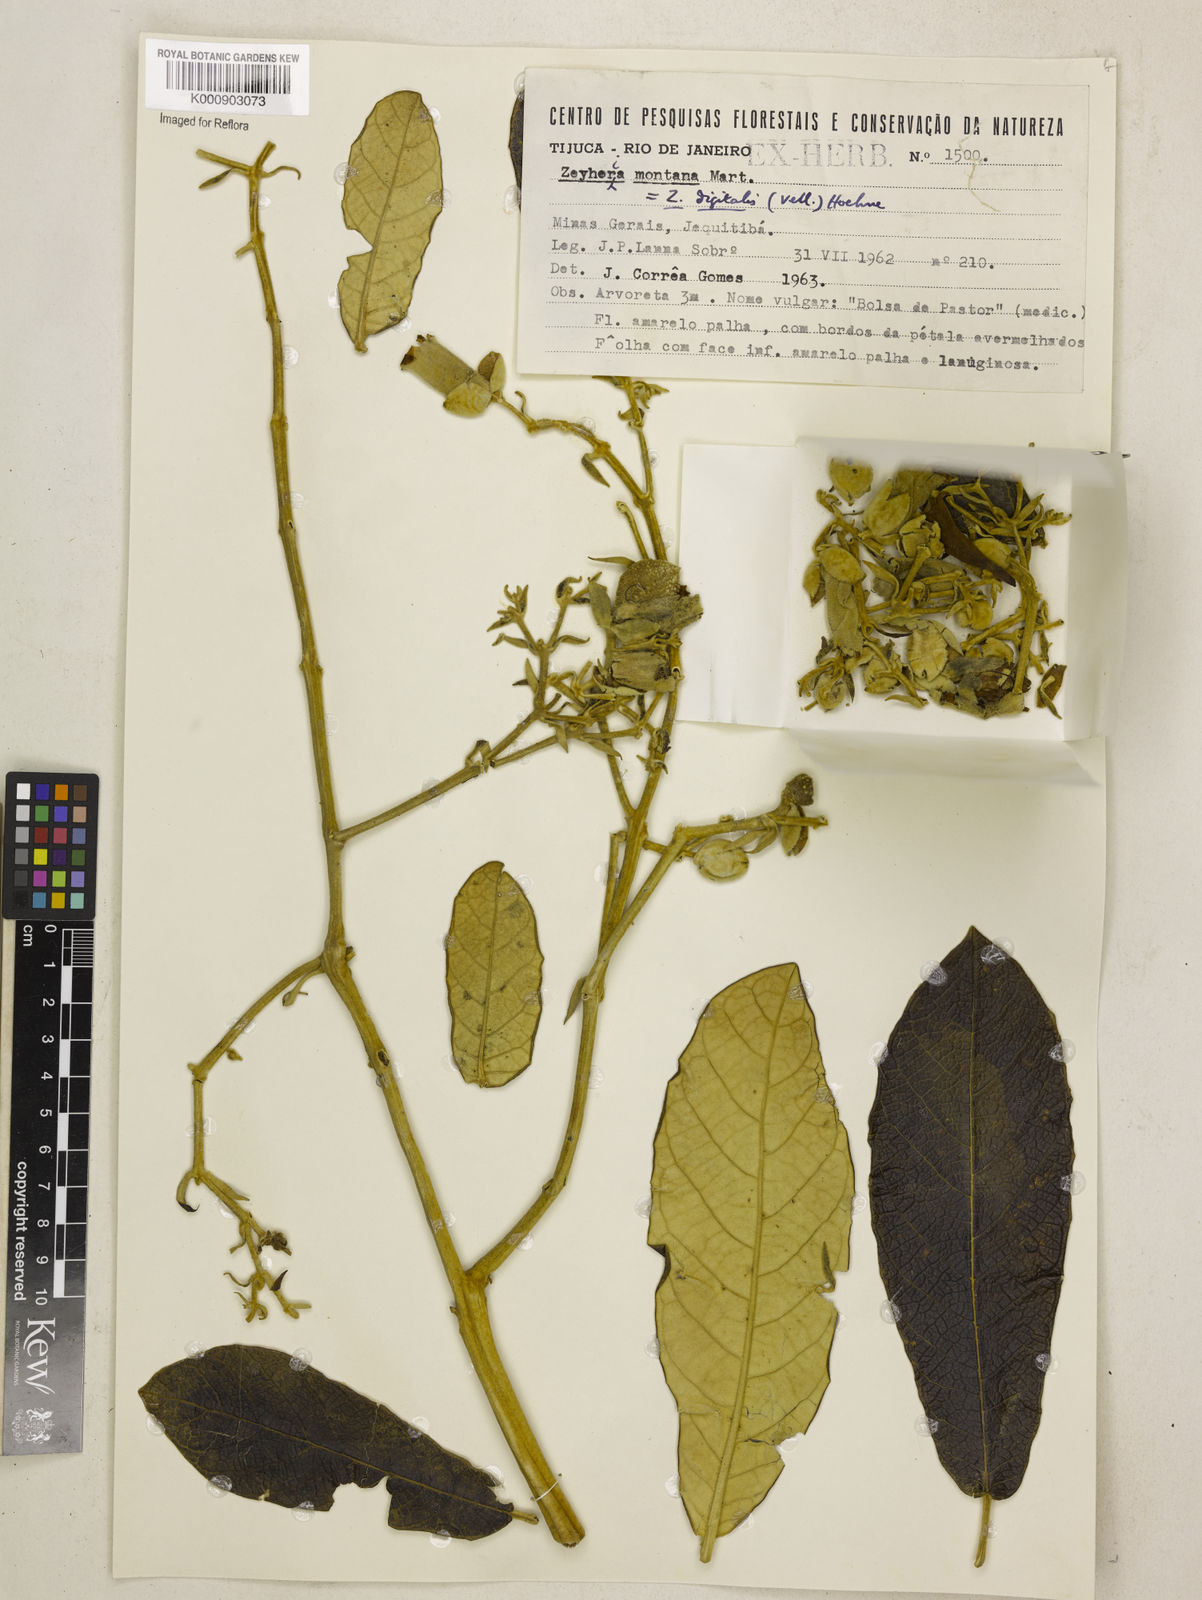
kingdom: Plantae
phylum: Tracheophyta
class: Magnoliopsida
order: Lamiales
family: Bignoniaceae
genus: Zeyheria
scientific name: Zeyheria
